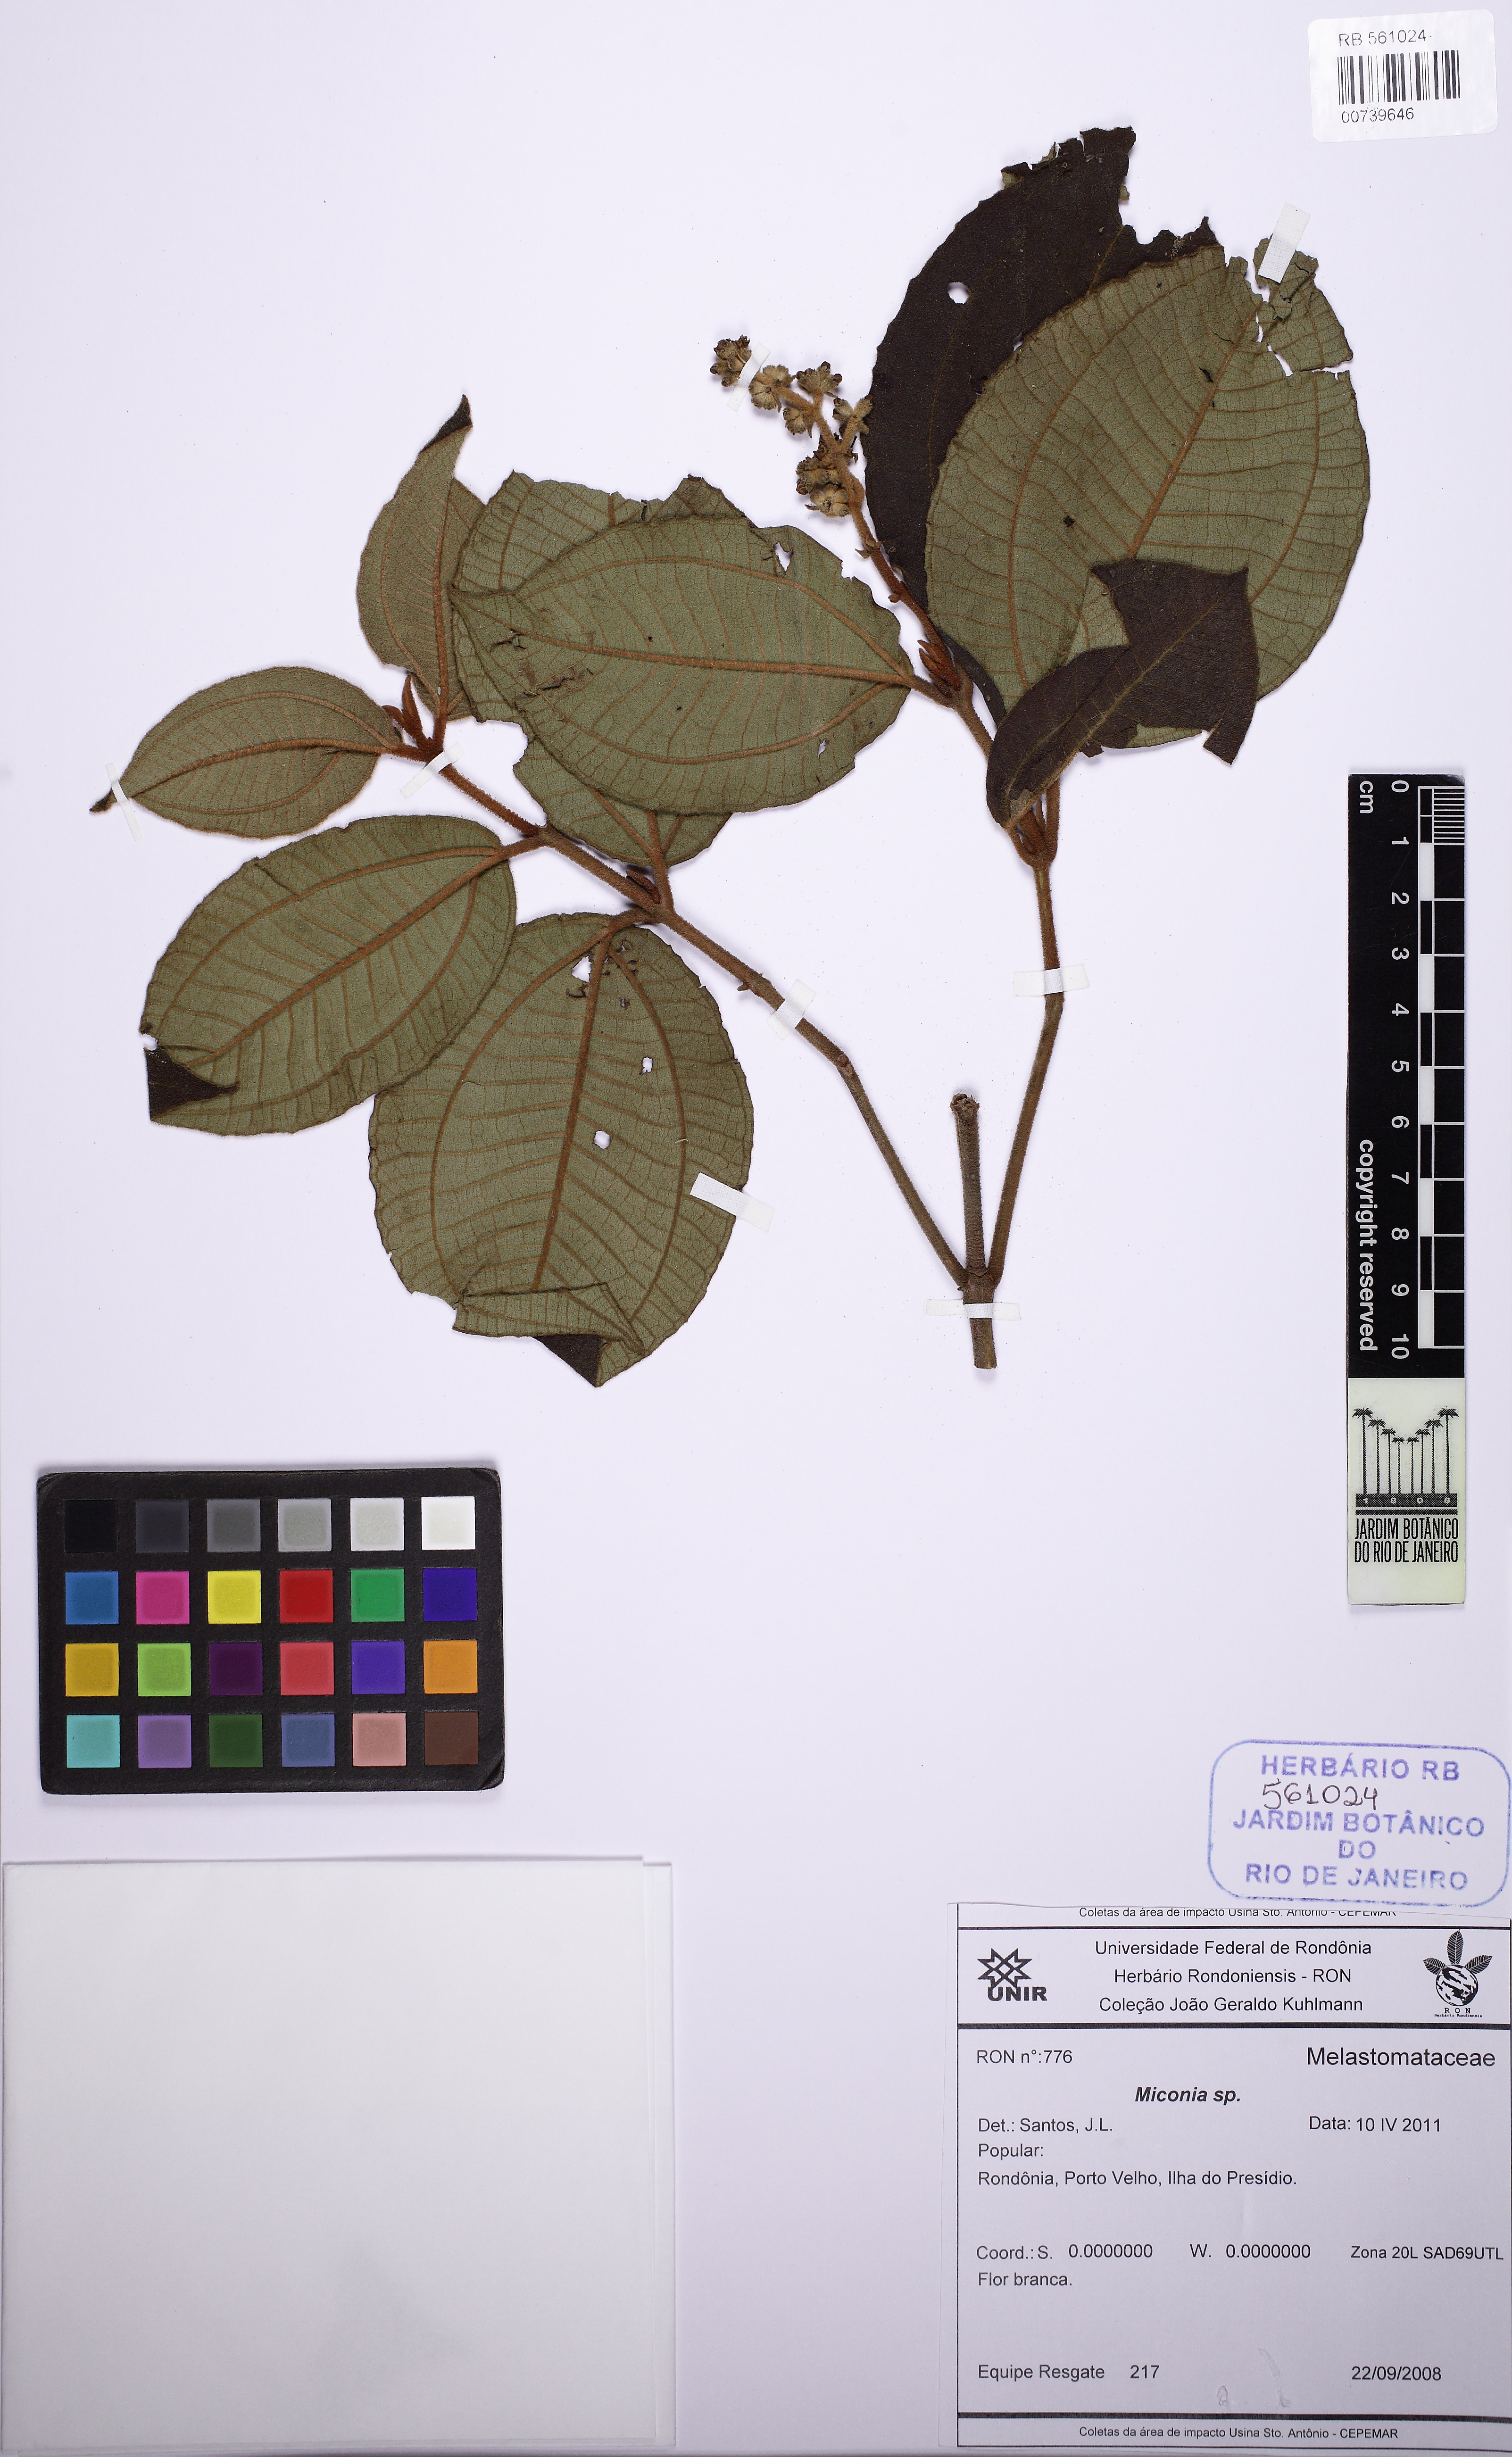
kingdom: Plantae
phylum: Tracheophyta
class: Magnoliopsida
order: Myrtales
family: Melastomataceae
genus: Miconia
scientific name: Miconia lanata
